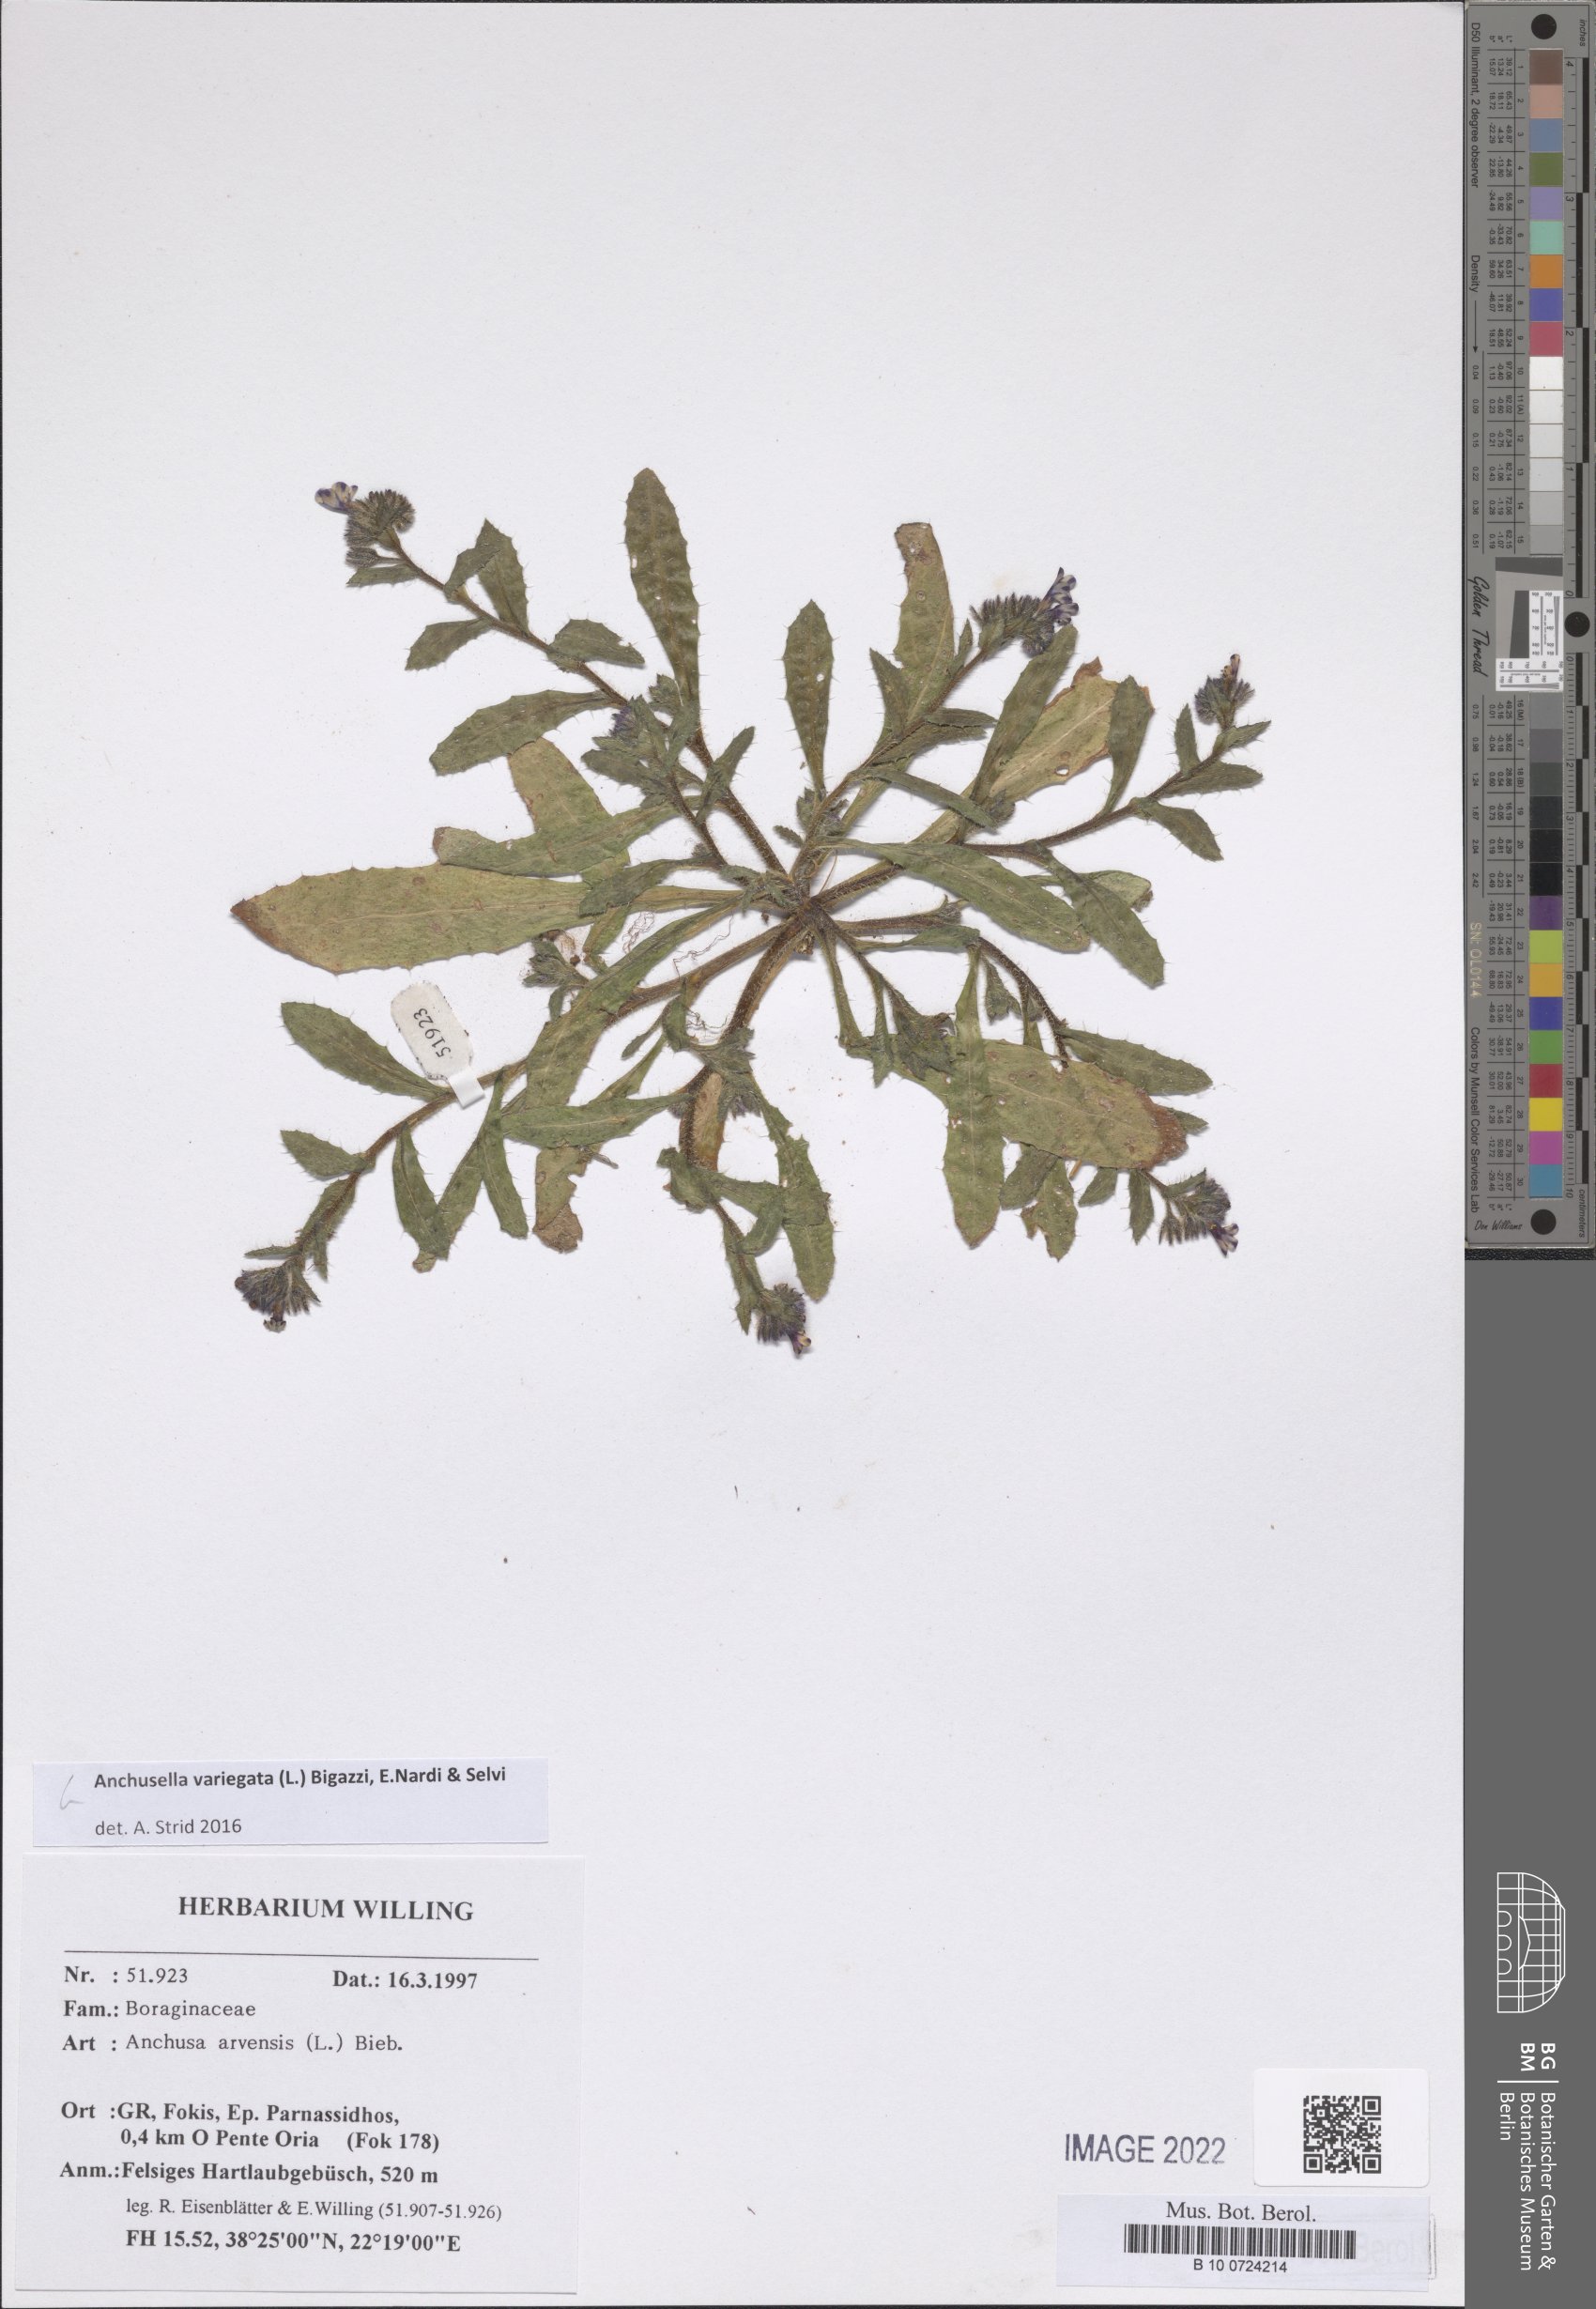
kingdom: Plantae
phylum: Tracheophyta
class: Magnoliopsida
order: Boraginales
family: Boraginaceae
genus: Anchusella
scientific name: Anchusella variegata
